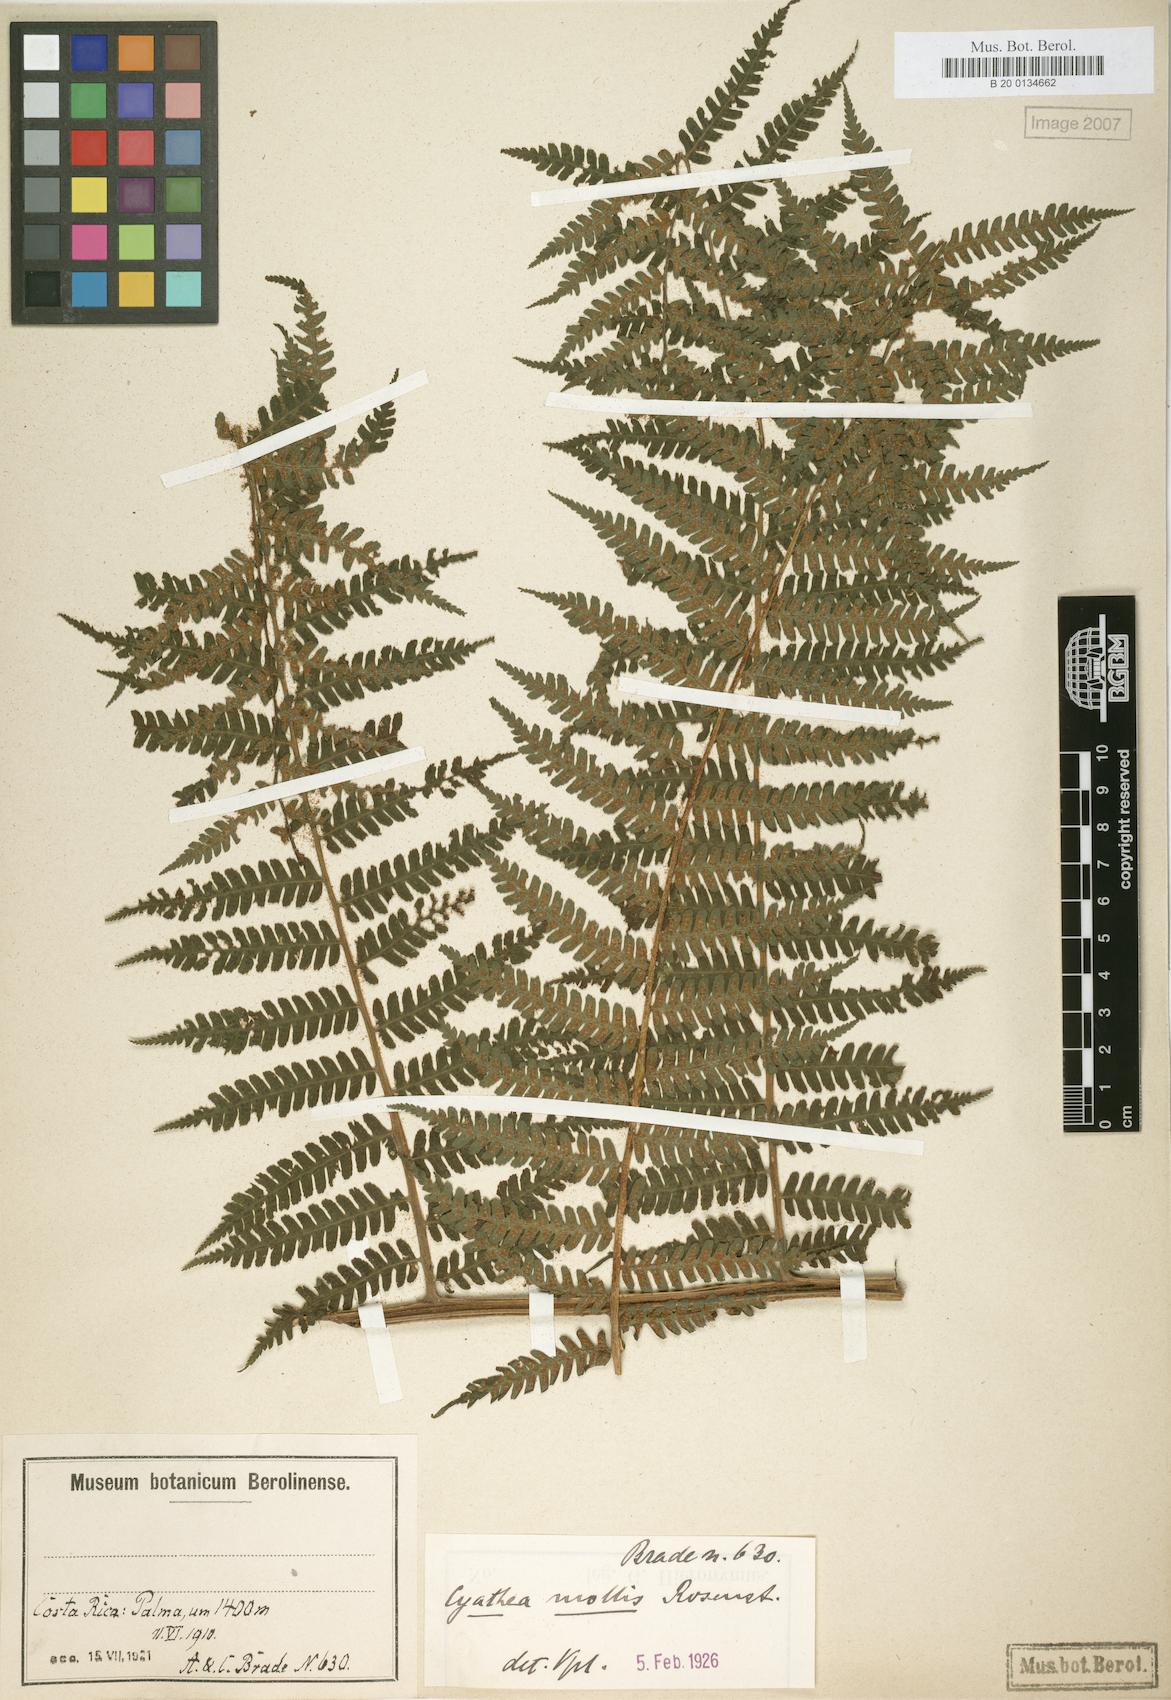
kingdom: Plantae
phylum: Tracheophyta
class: Polypodiopsida
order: Cyatheales
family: Cyatheaceae
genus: Cyathea
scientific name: Cyathea fulva
